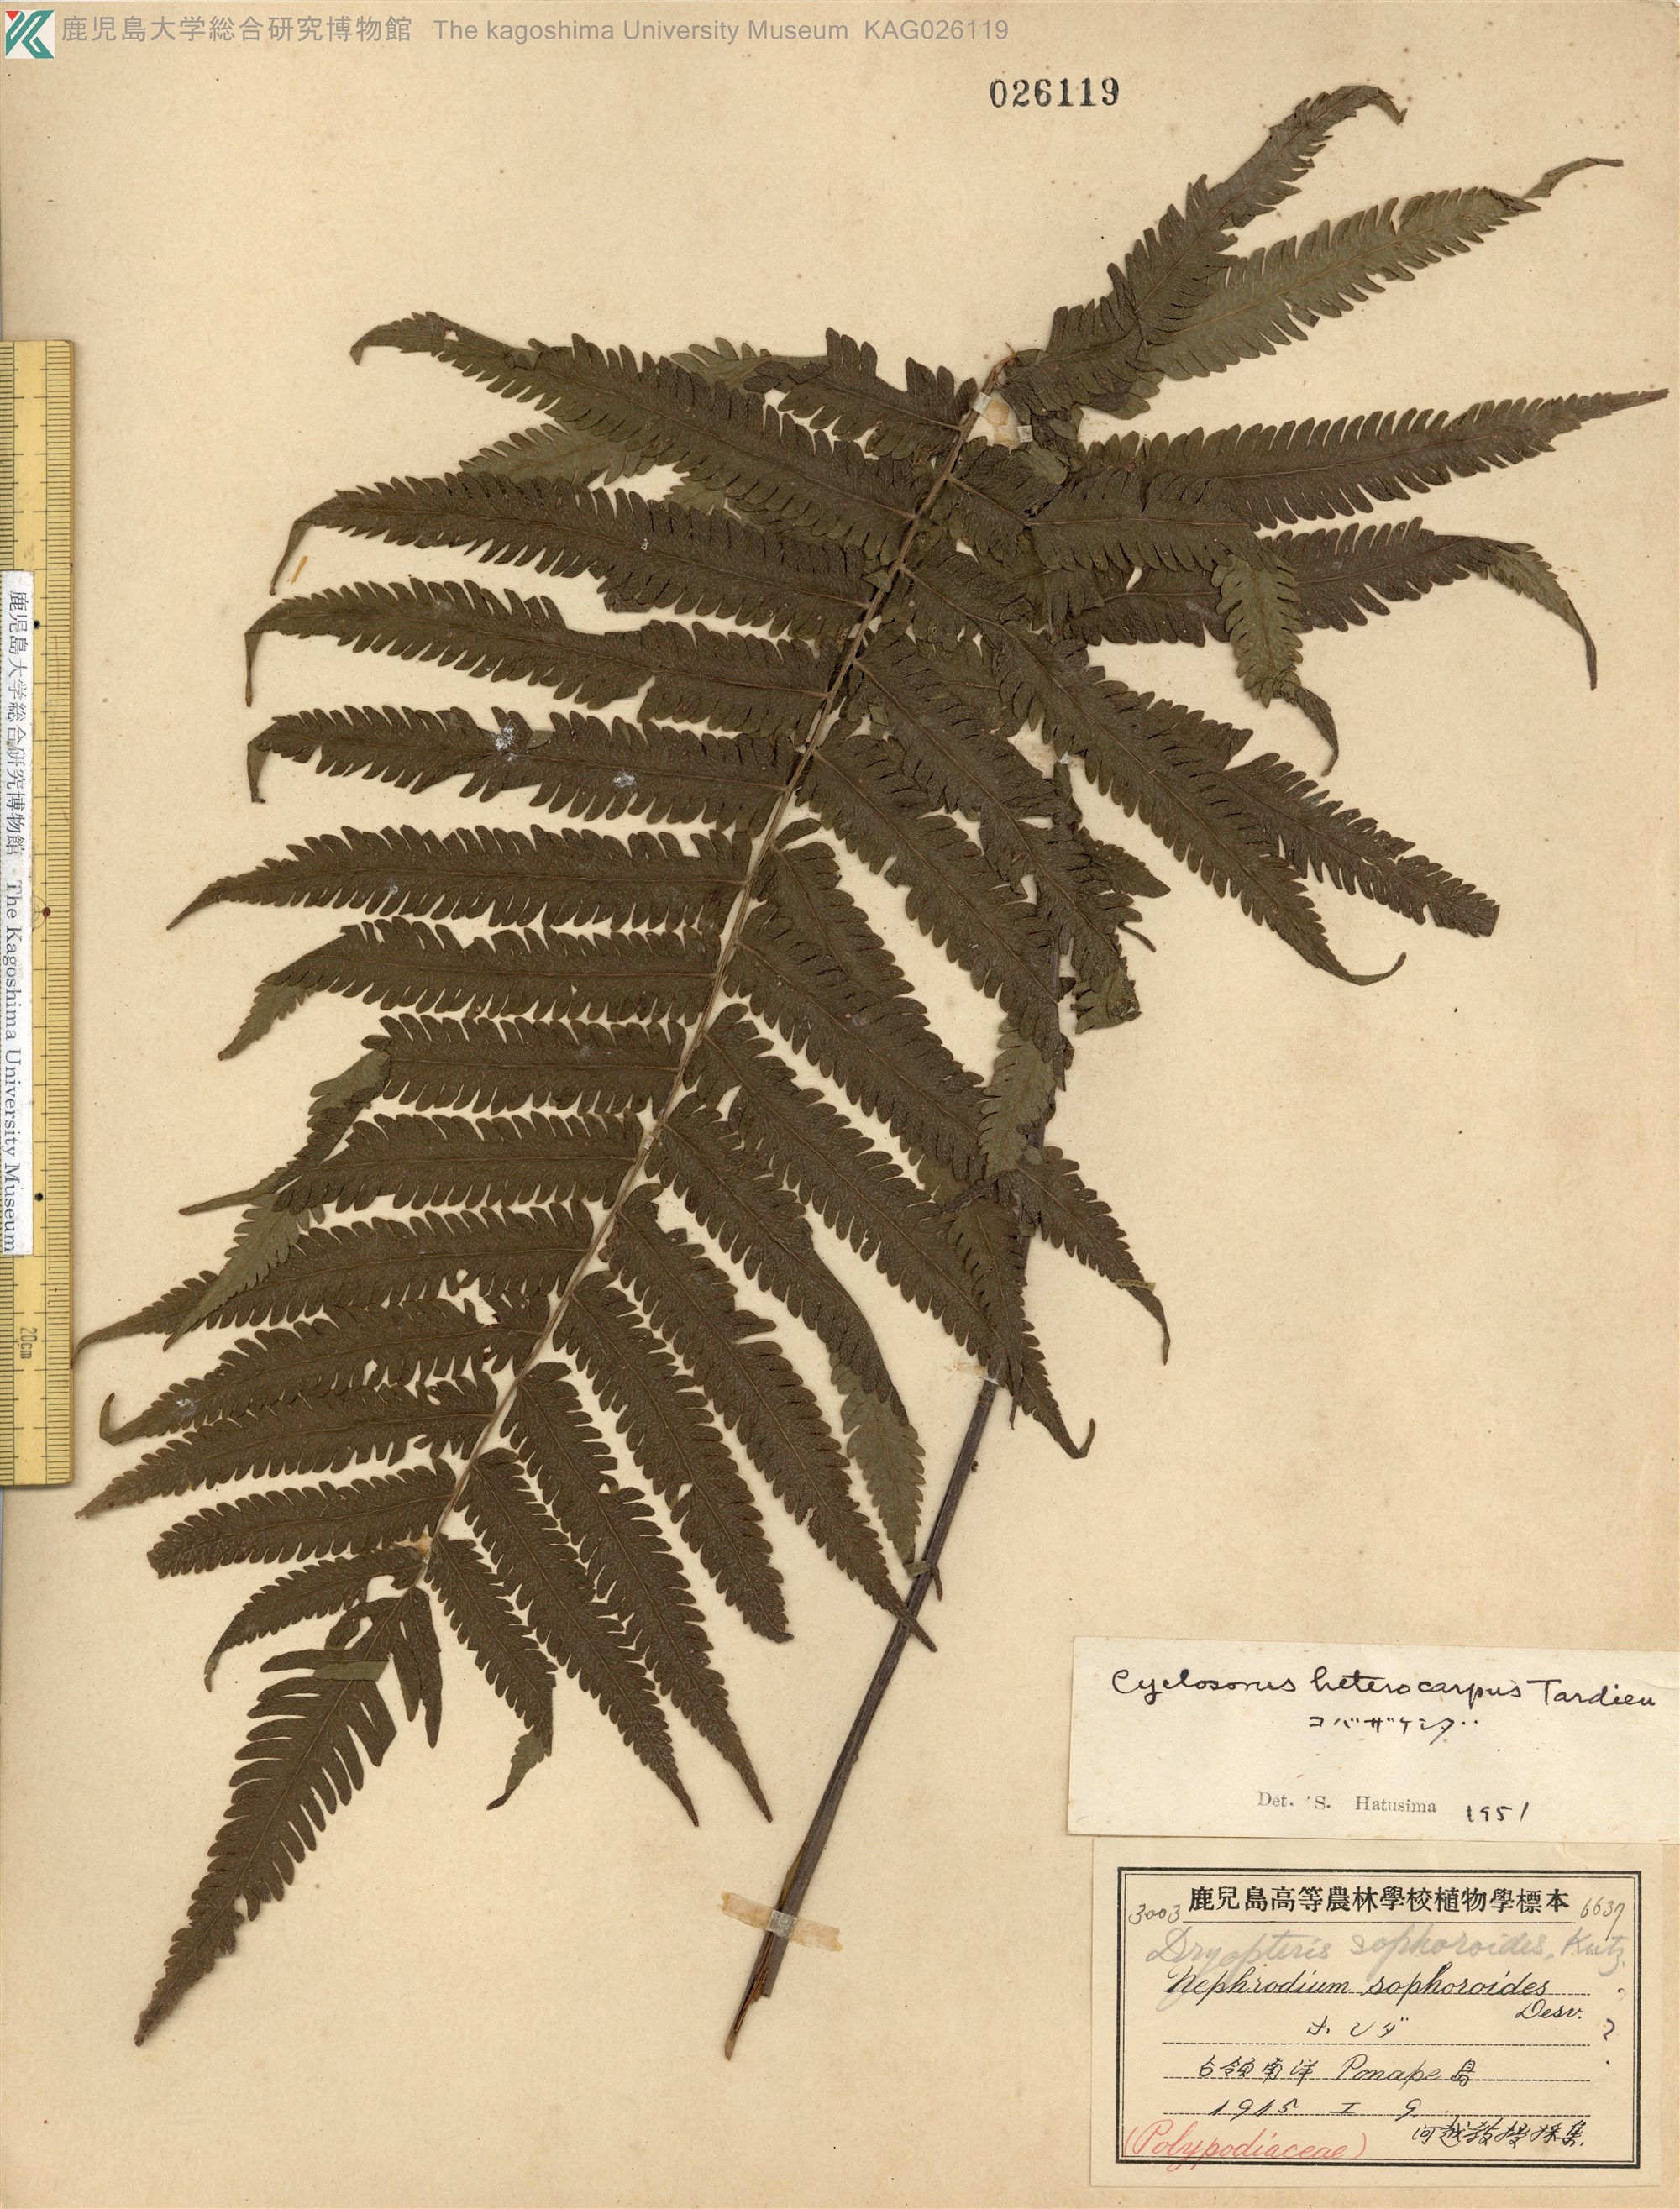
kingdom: Plantae
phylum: Tracheophyta
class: Polypodiopsida
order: Polypodiales
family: Thelypteridaceae
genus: Sphaerostephanos
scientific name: Sphaerostephanos heterocarpus
